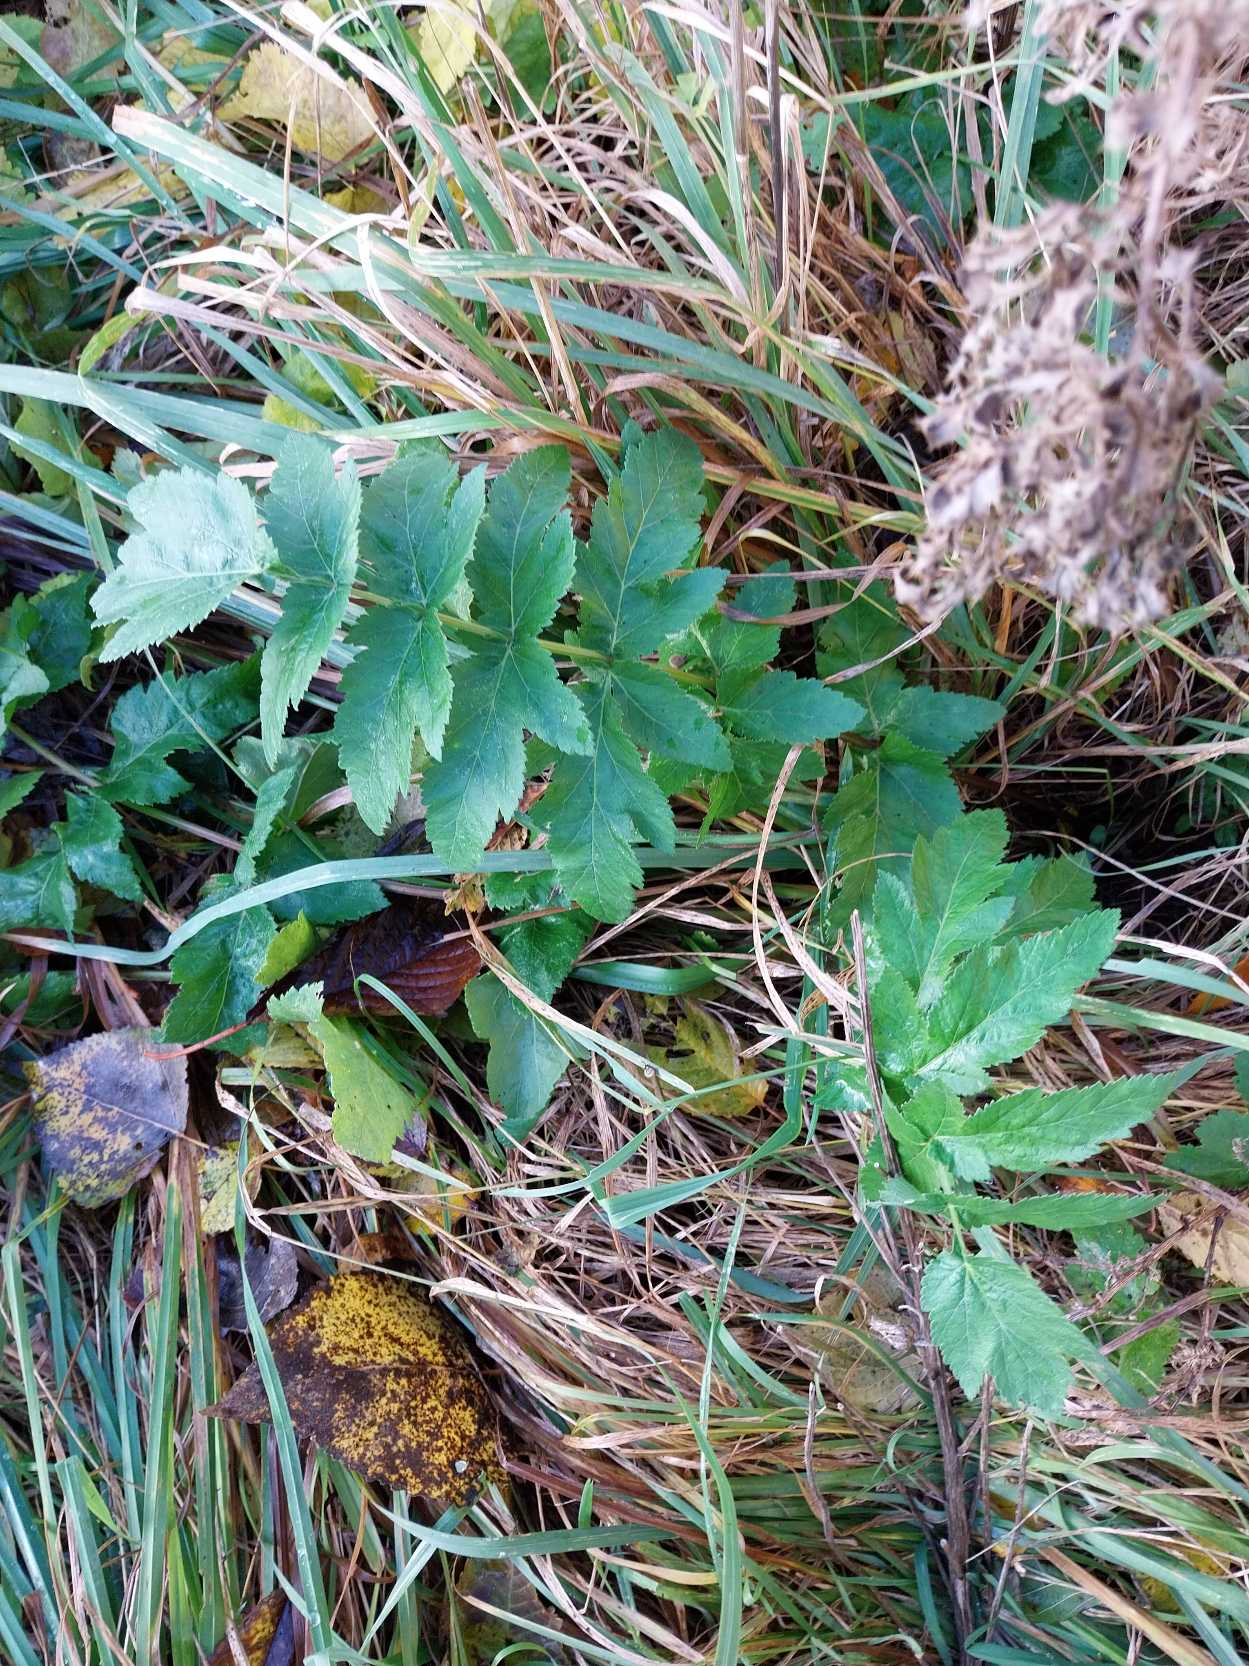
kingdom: Plantae
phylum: Tracheophyta
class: Magnoliopsida
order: Apiales
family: Apiaceae
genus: Pastinaca
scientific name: Pastinaca sativa
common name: Pastinak
